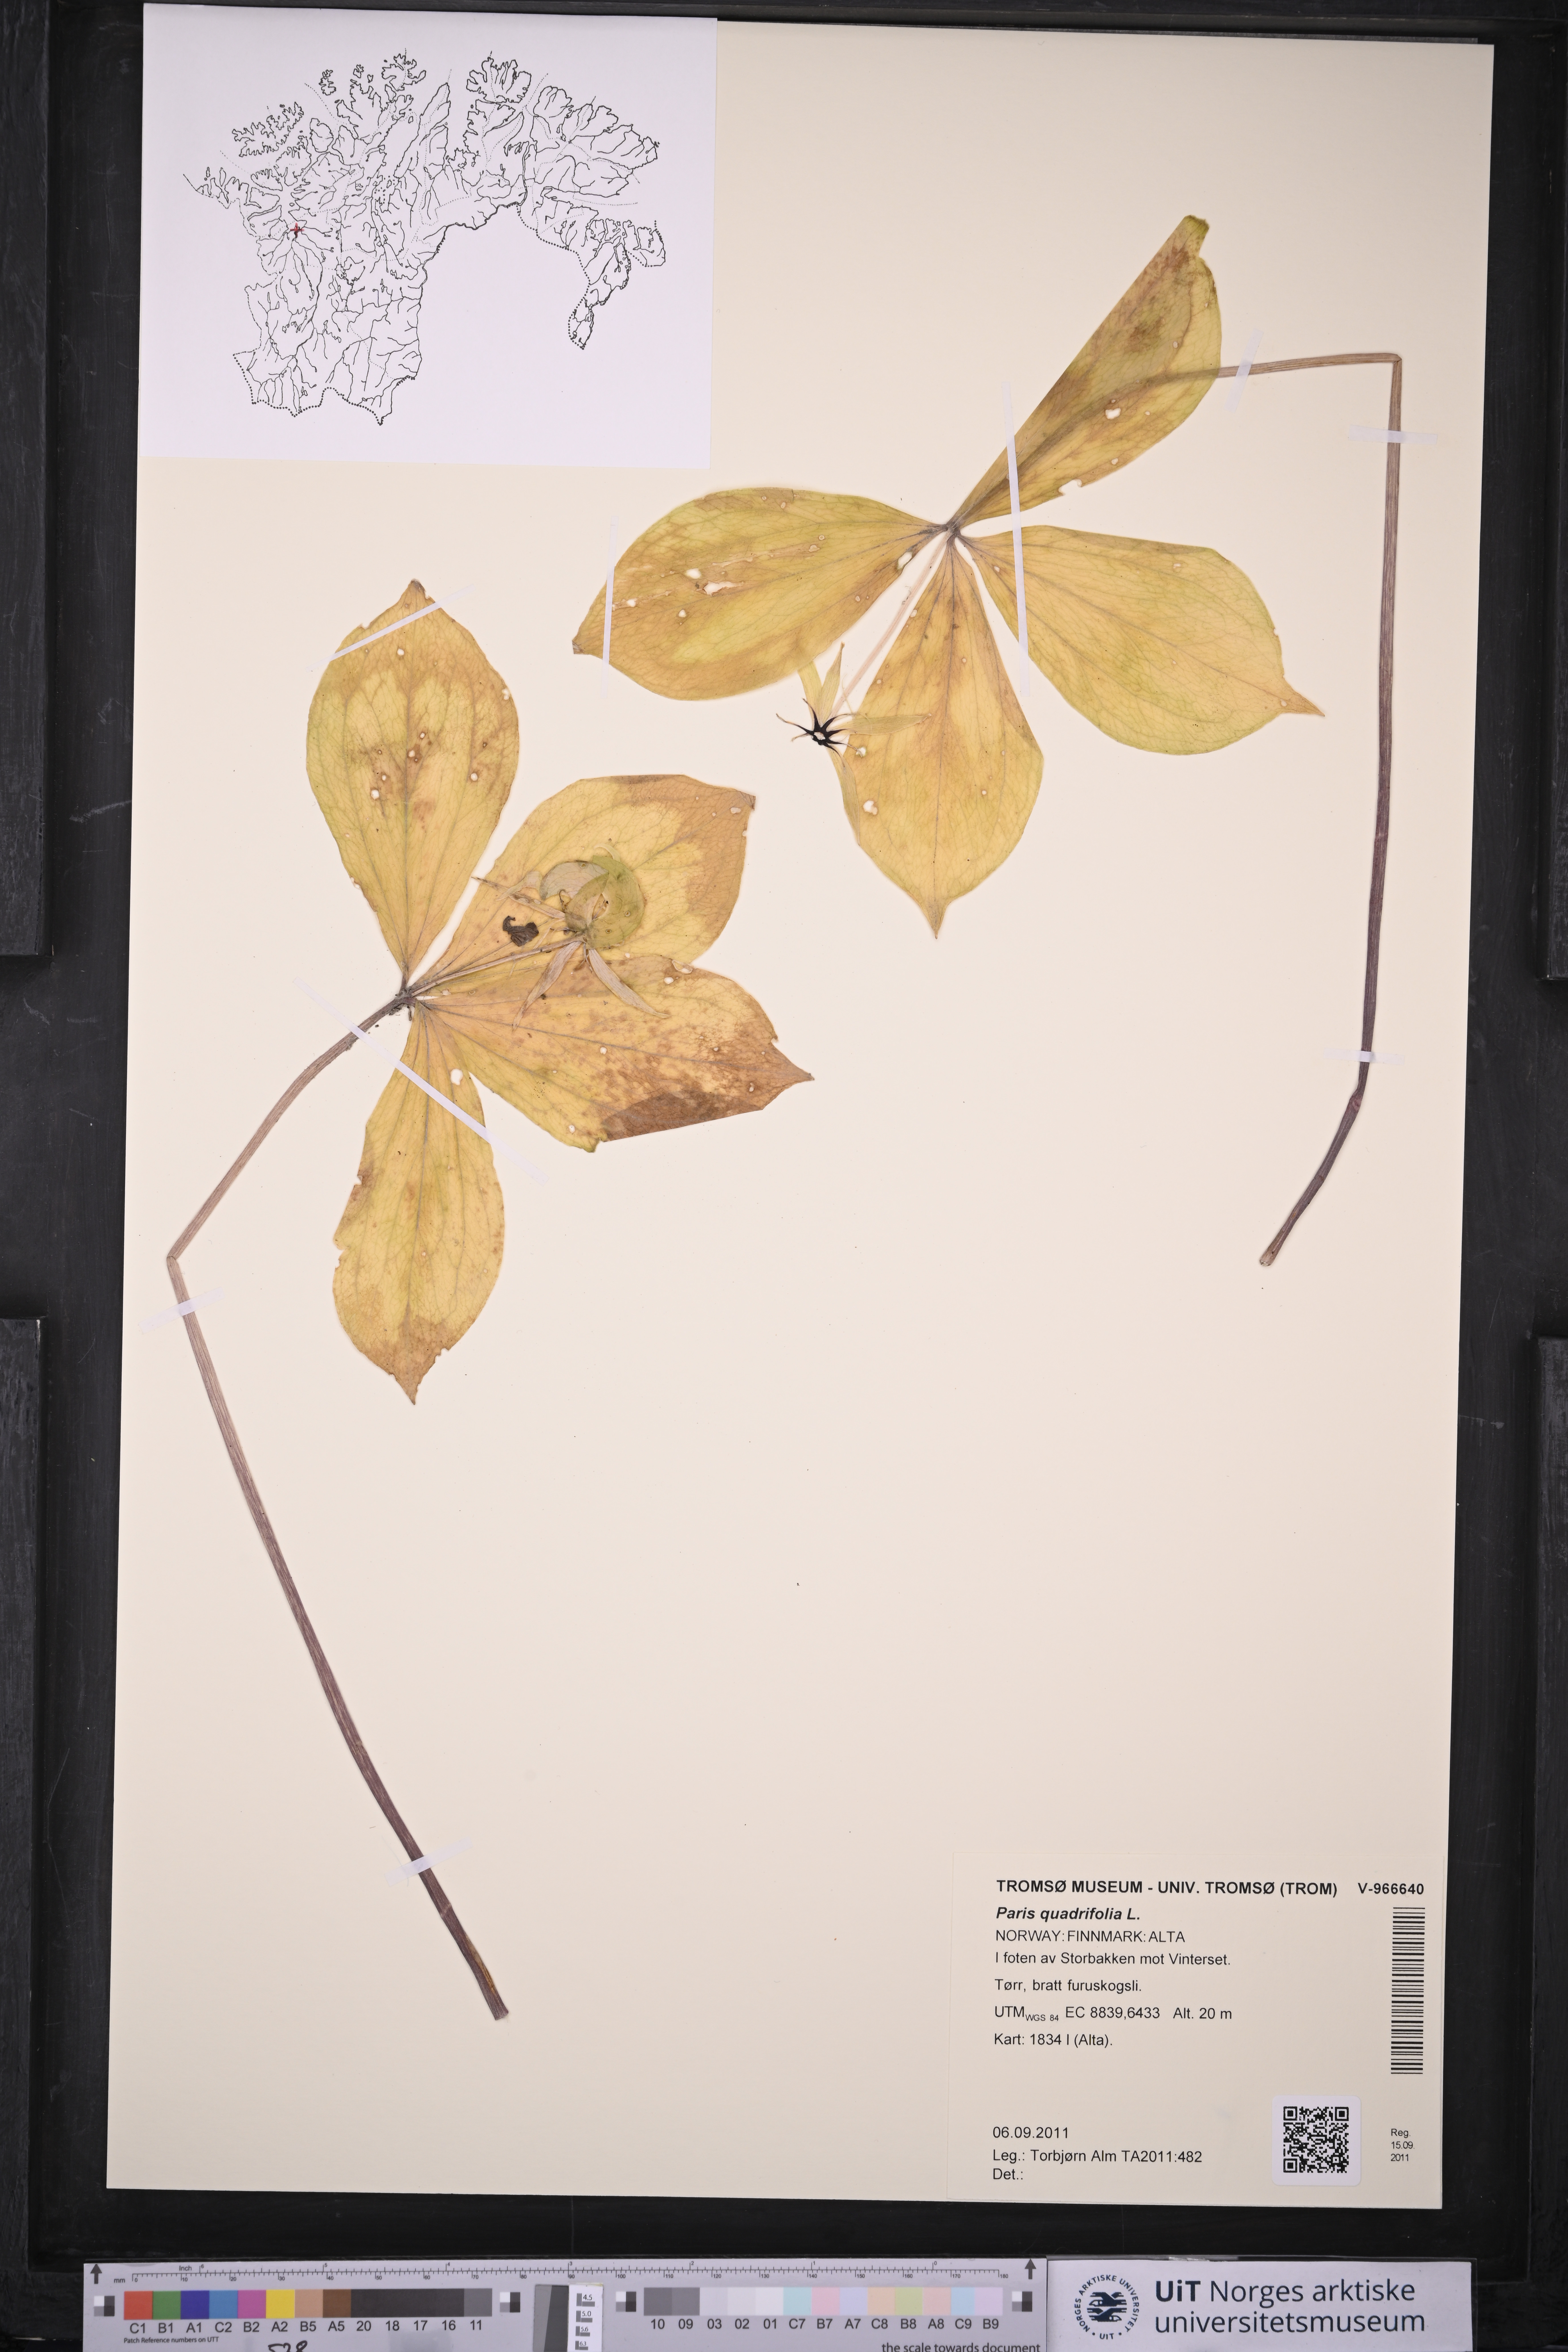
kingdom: Plantae
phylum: Tracheophyta
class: Liliopsida
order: Liliales
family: Melanthiaceae
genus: Paris
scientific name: Paris quadrifolia
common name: Herb-paris
